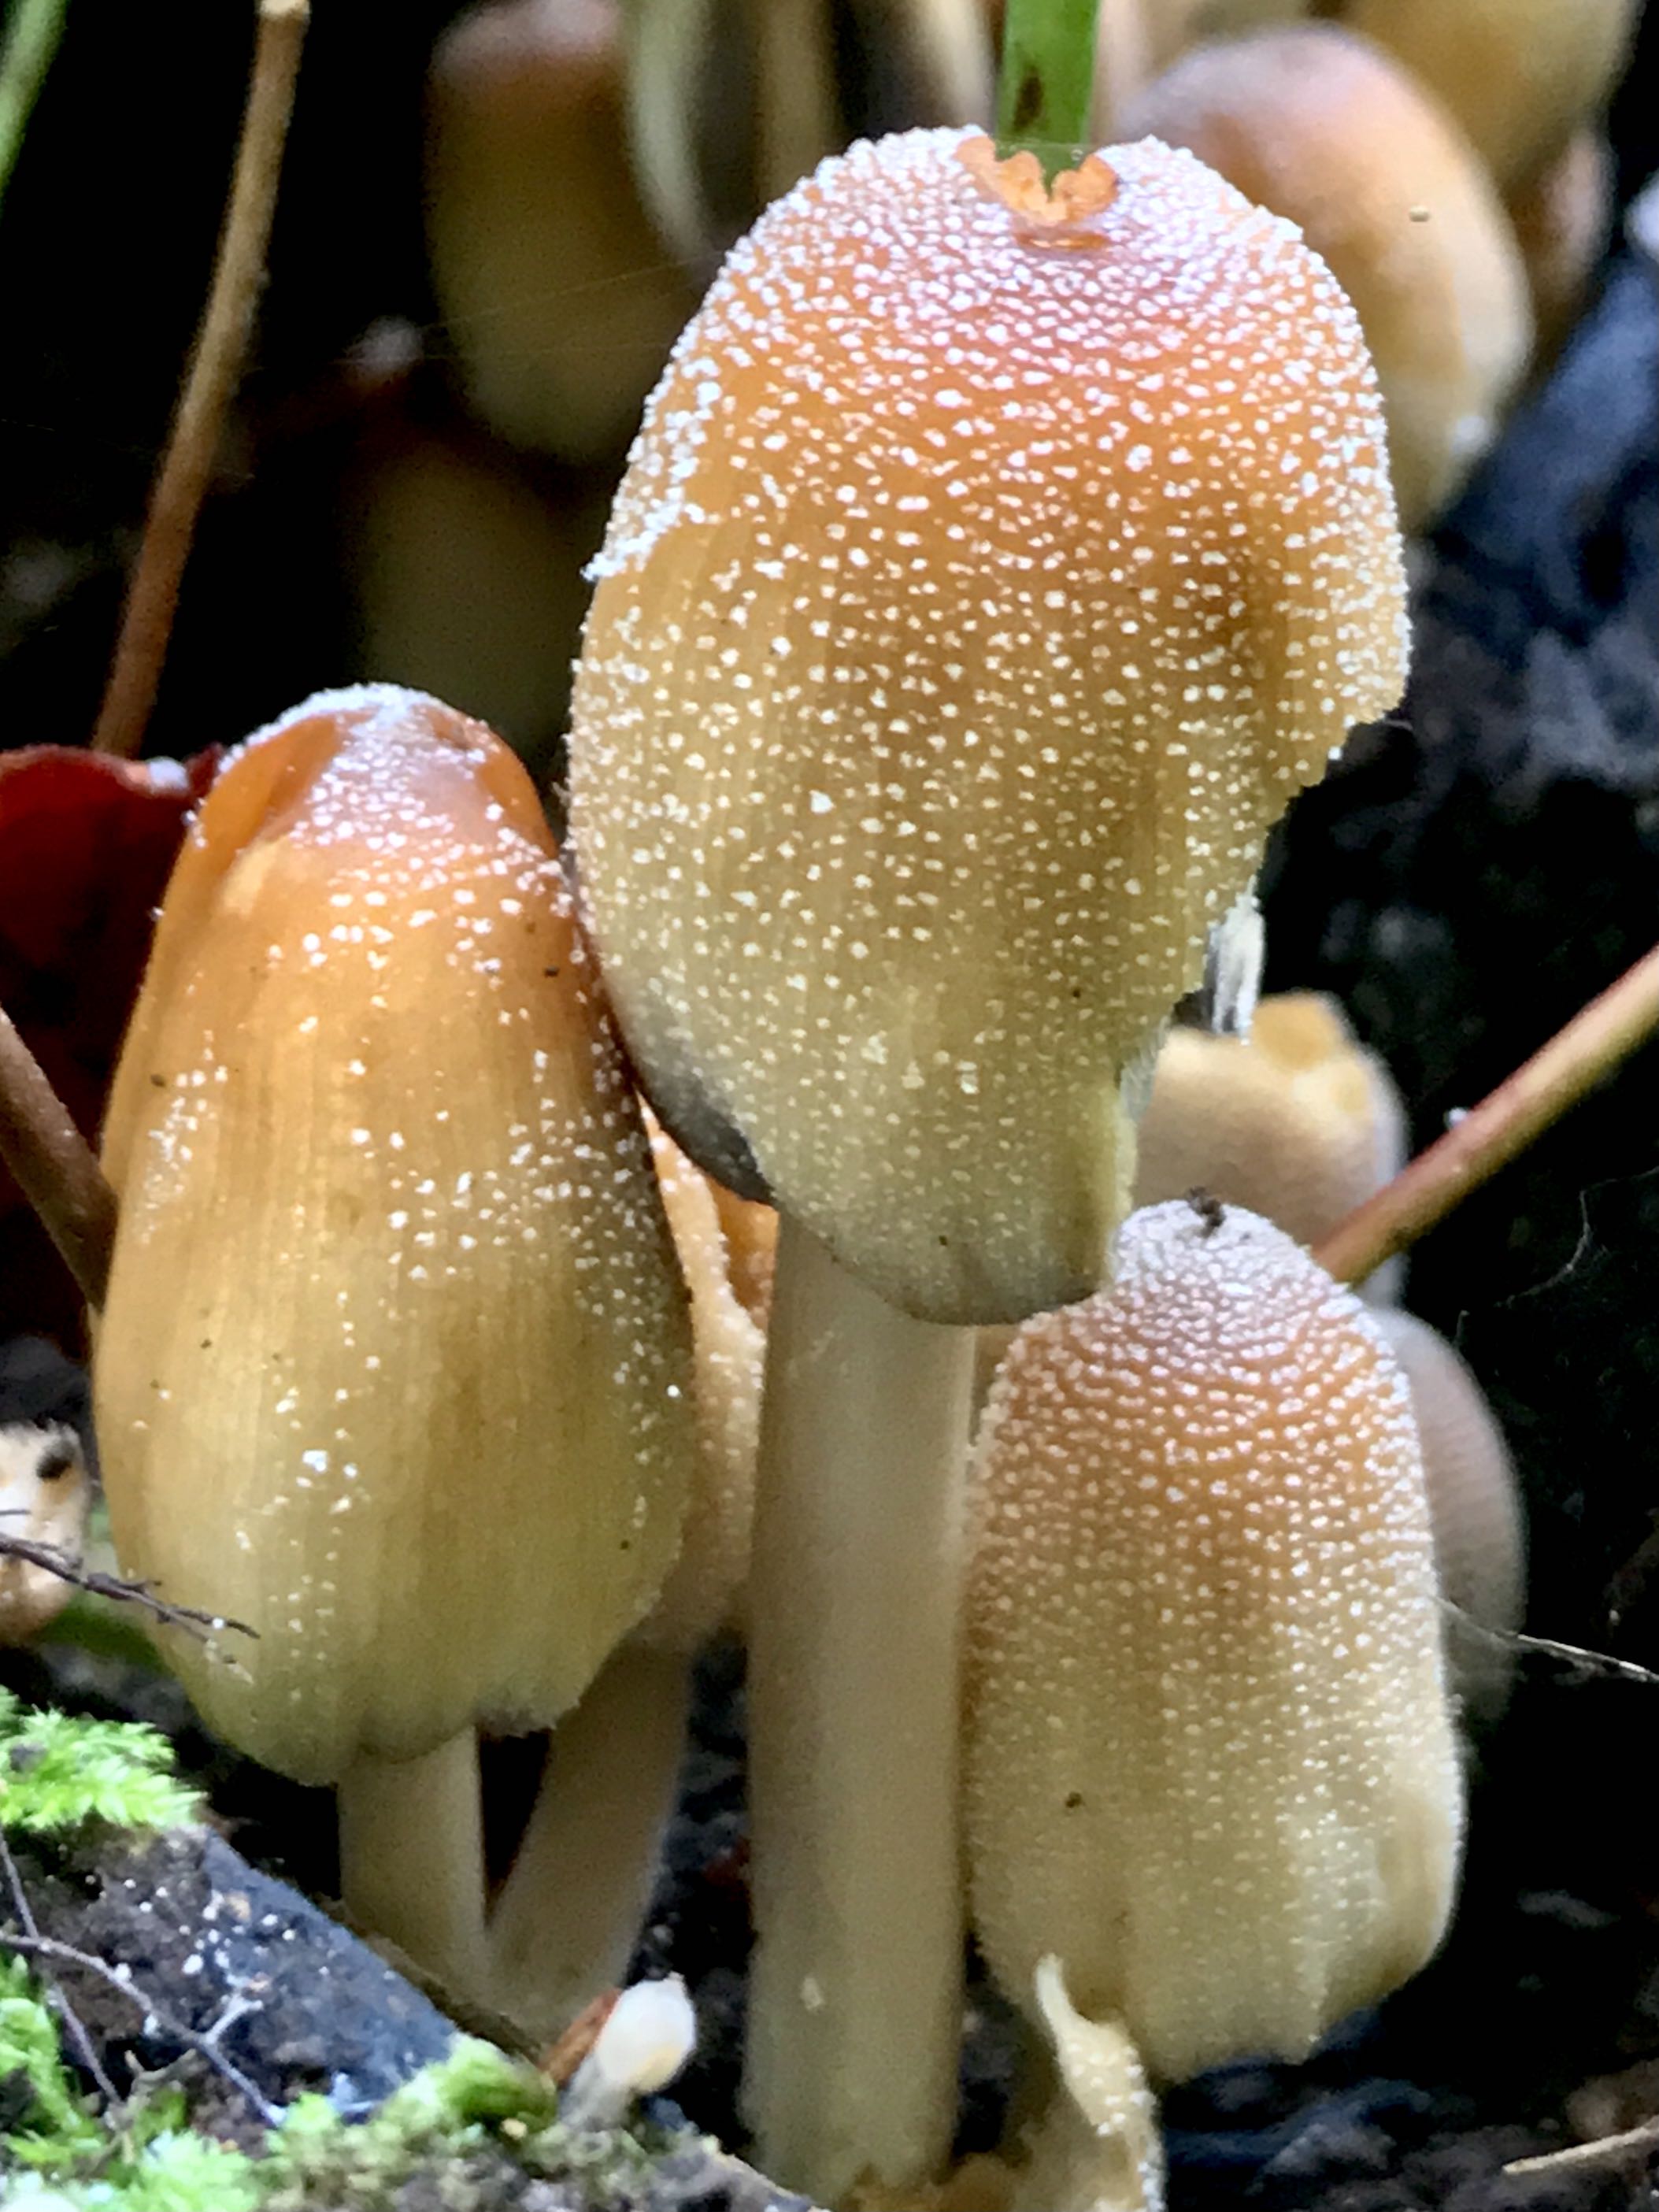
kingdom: Fungi
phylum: Basidiomycota
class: Agaricomycetes
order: Agaricales
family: Psathyrellaceae
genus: Coprinellus
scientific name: Coprinellus micaceus
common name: glimmer-blækhat
